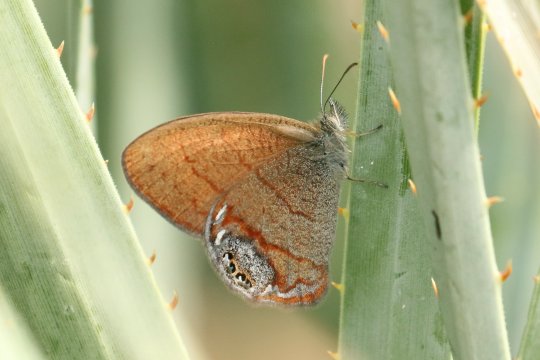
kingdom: Animalia
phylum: Arthropoda
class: Insecta
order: Lepidoptera
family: Nymphalidae
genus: Euptychia
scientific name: Euptychia pyracmon
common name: Nabokov's Satyr
